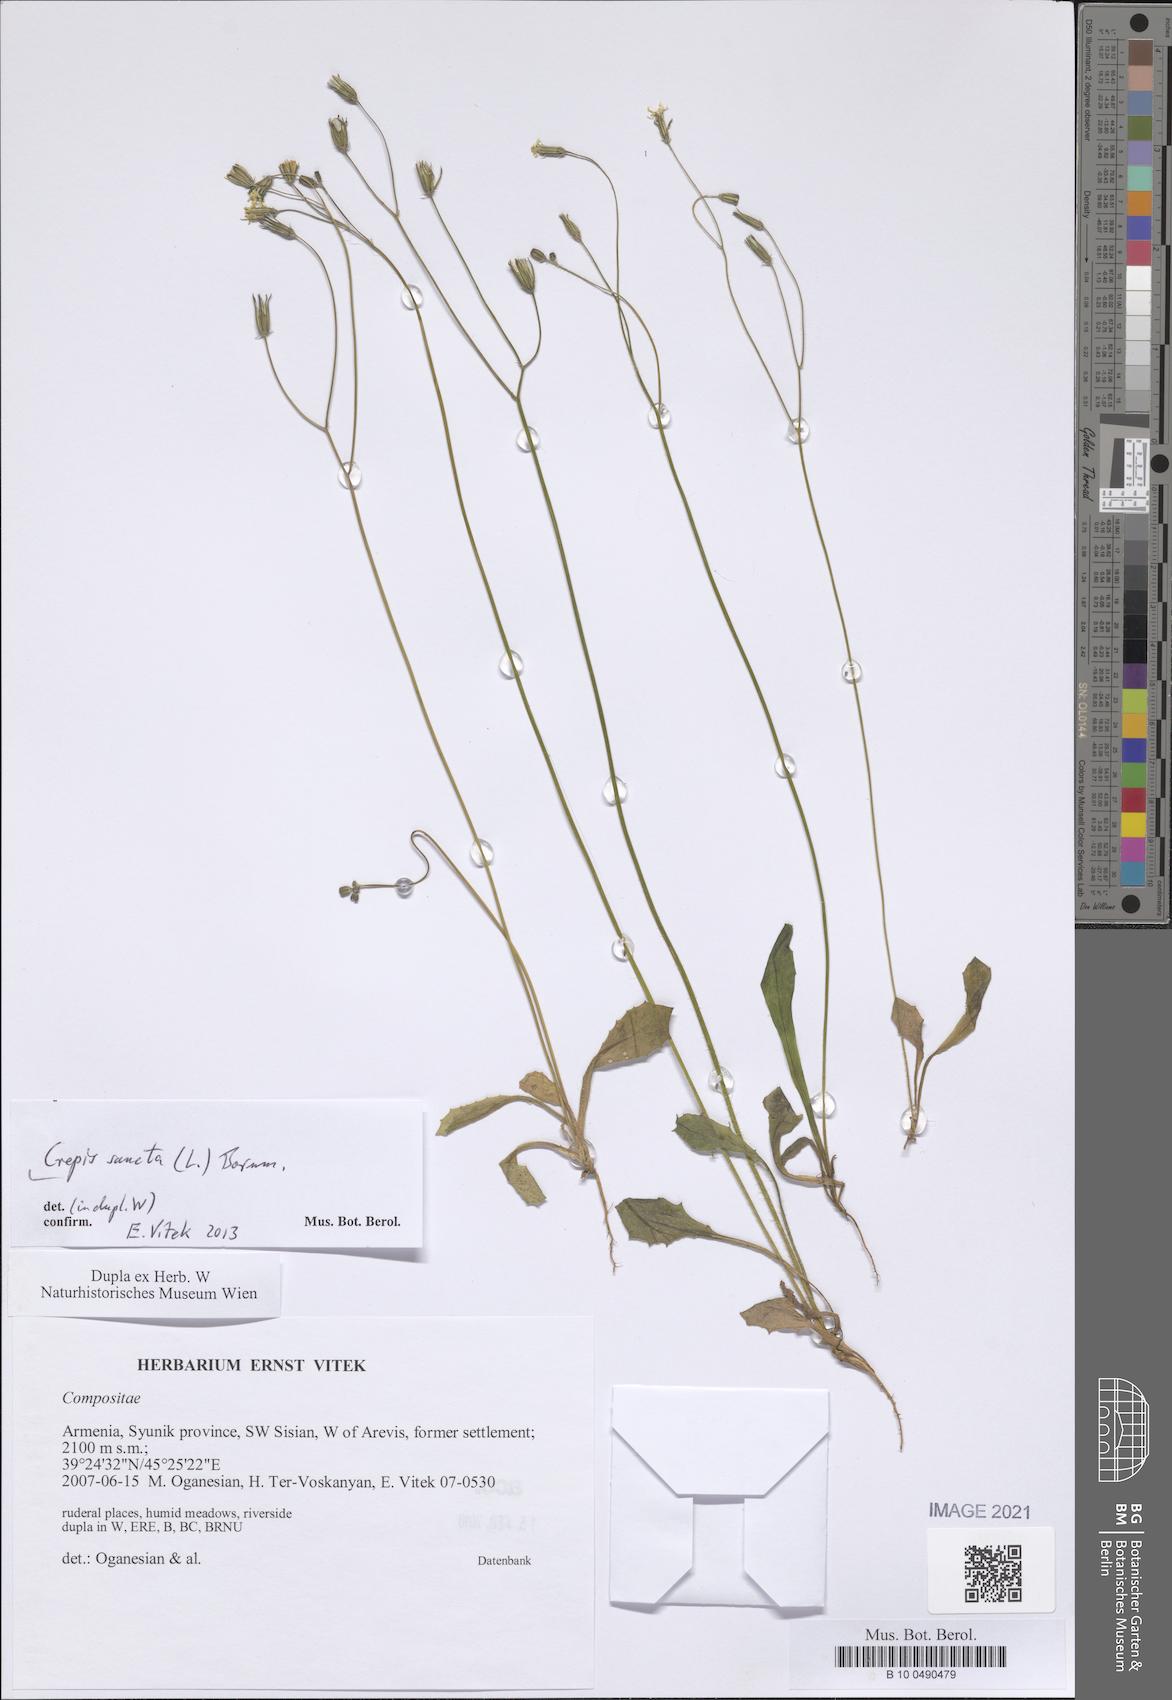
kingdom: Plantae
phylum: Tracheophyta
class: Magnoliopsida
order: Asterales
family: Asteraceae
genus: Crepis
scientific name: Crepis sancta
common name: Hawk's-beard
